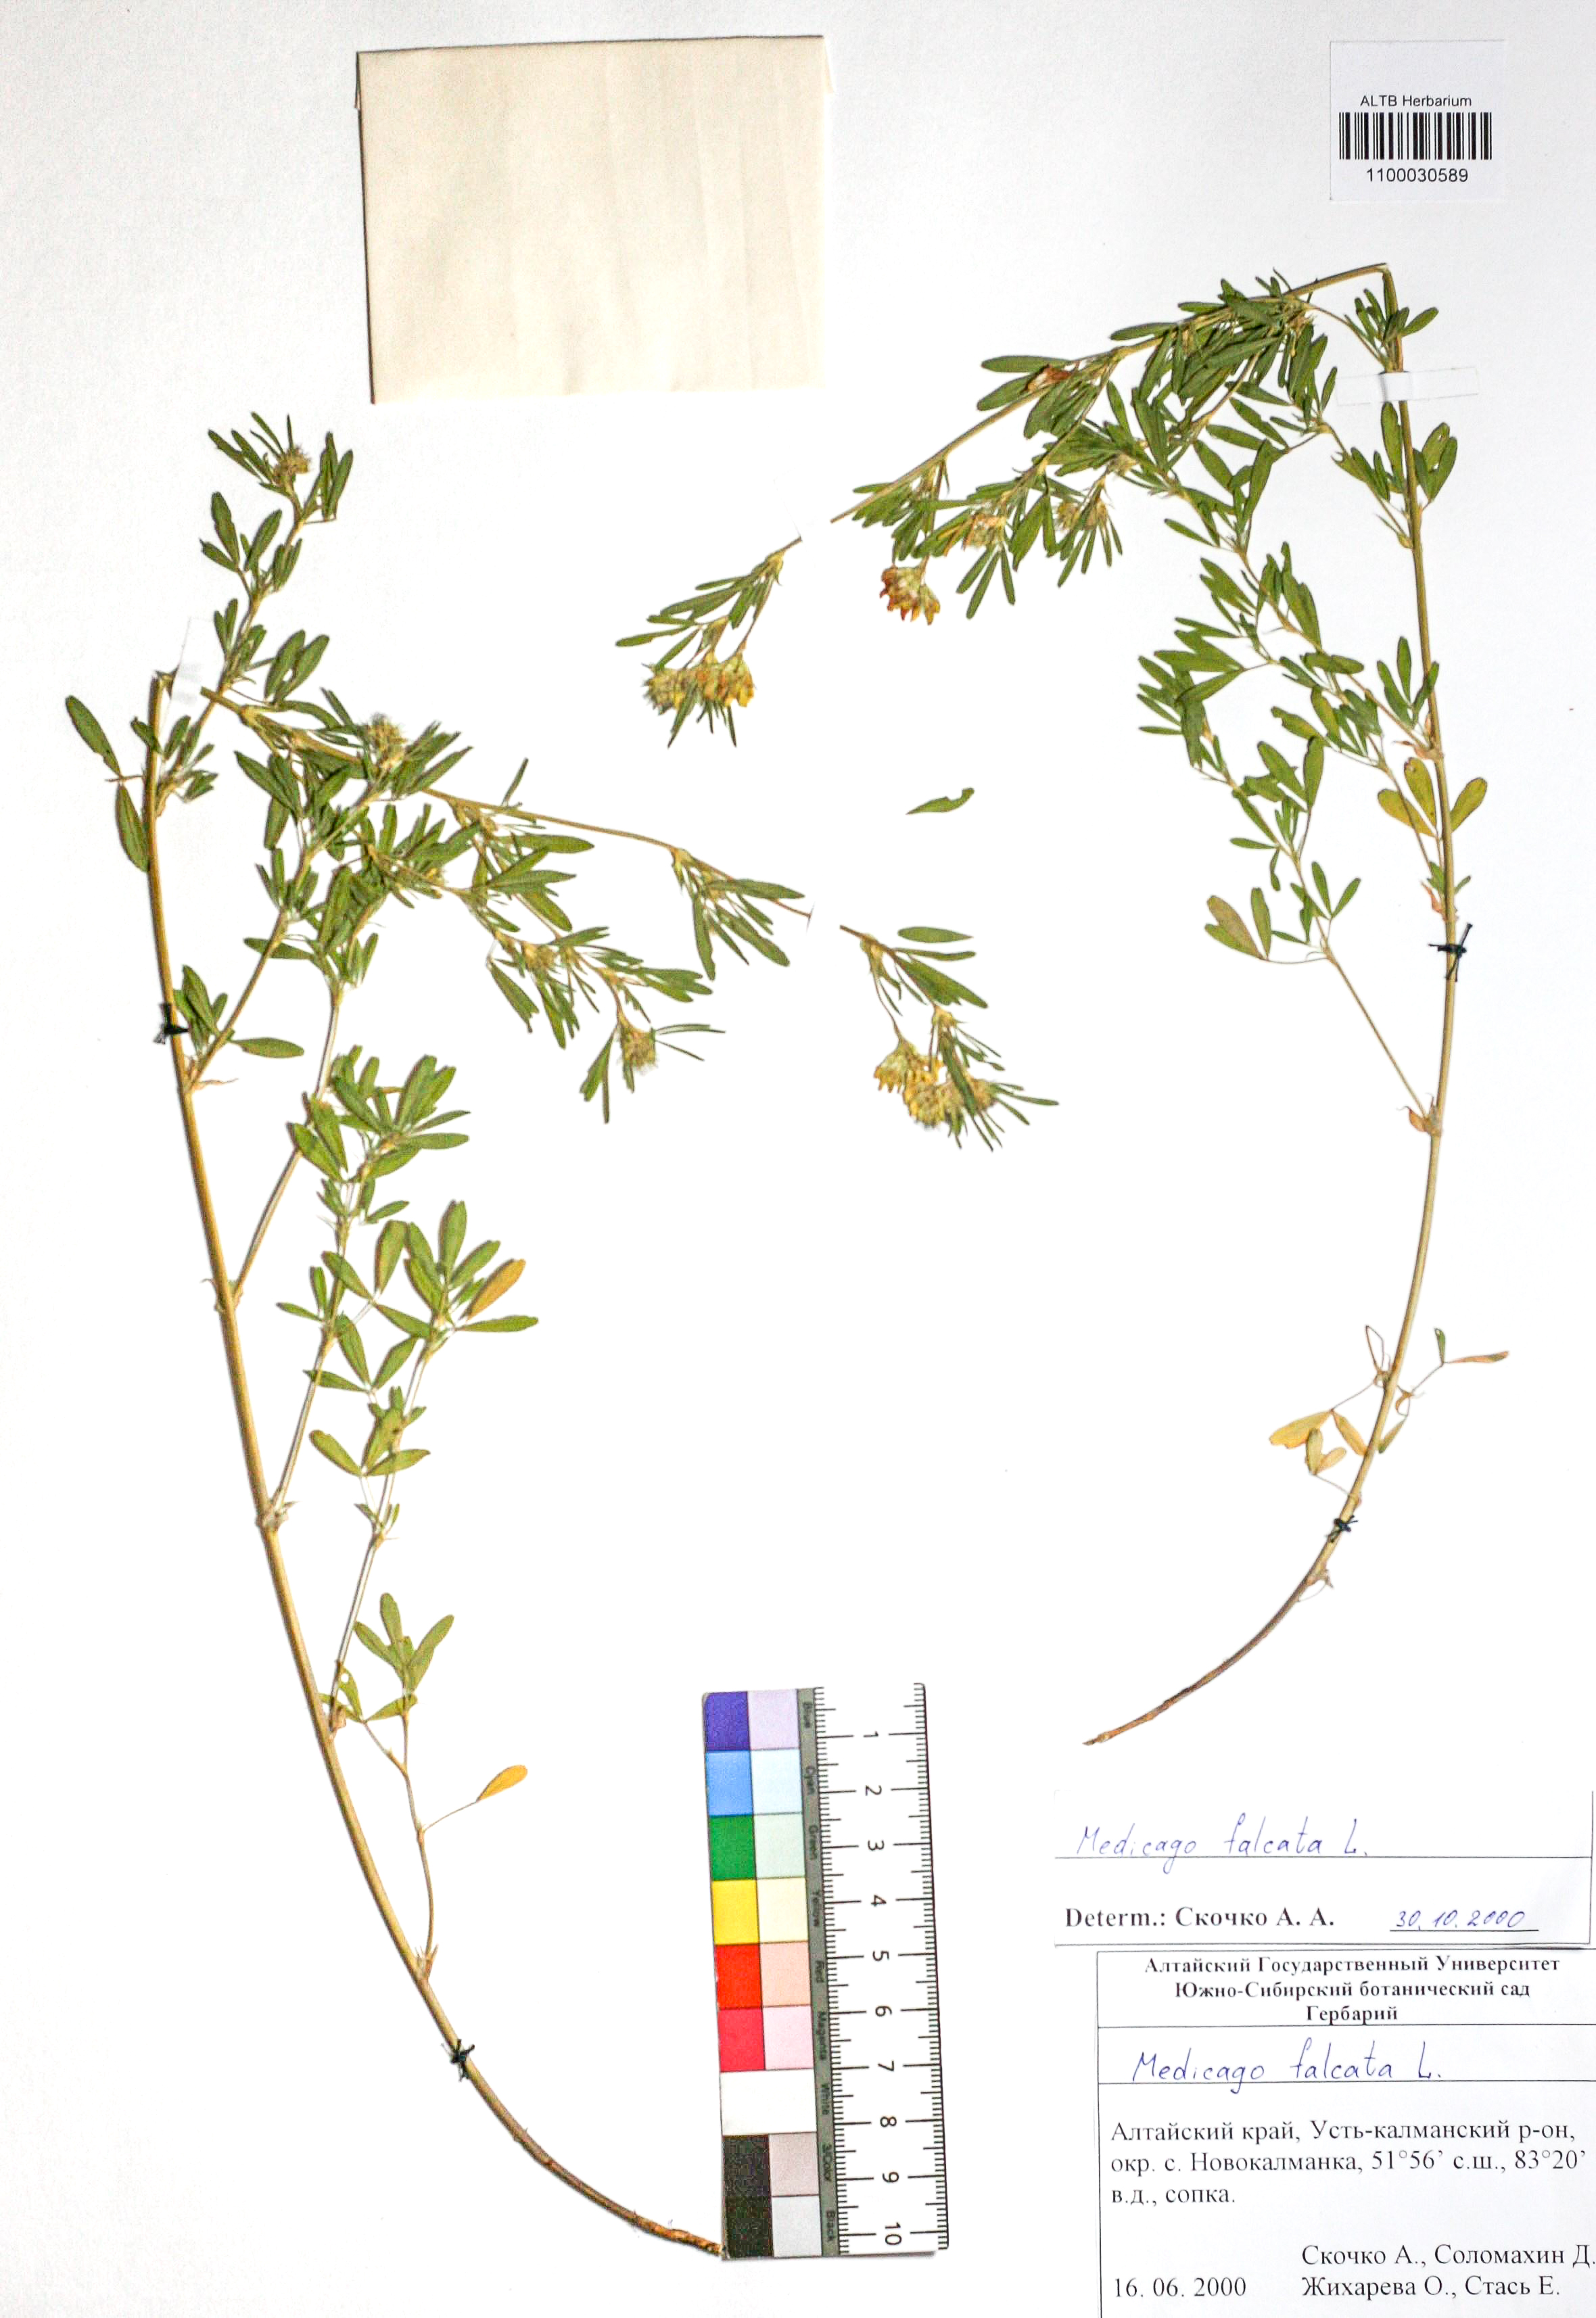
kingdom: Plantae
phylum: Tracheophyta
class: Magnoliopsida
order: Fabales
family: Fabaceae
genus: Medicago
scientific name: Medicago falcata
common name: Sickle medick
